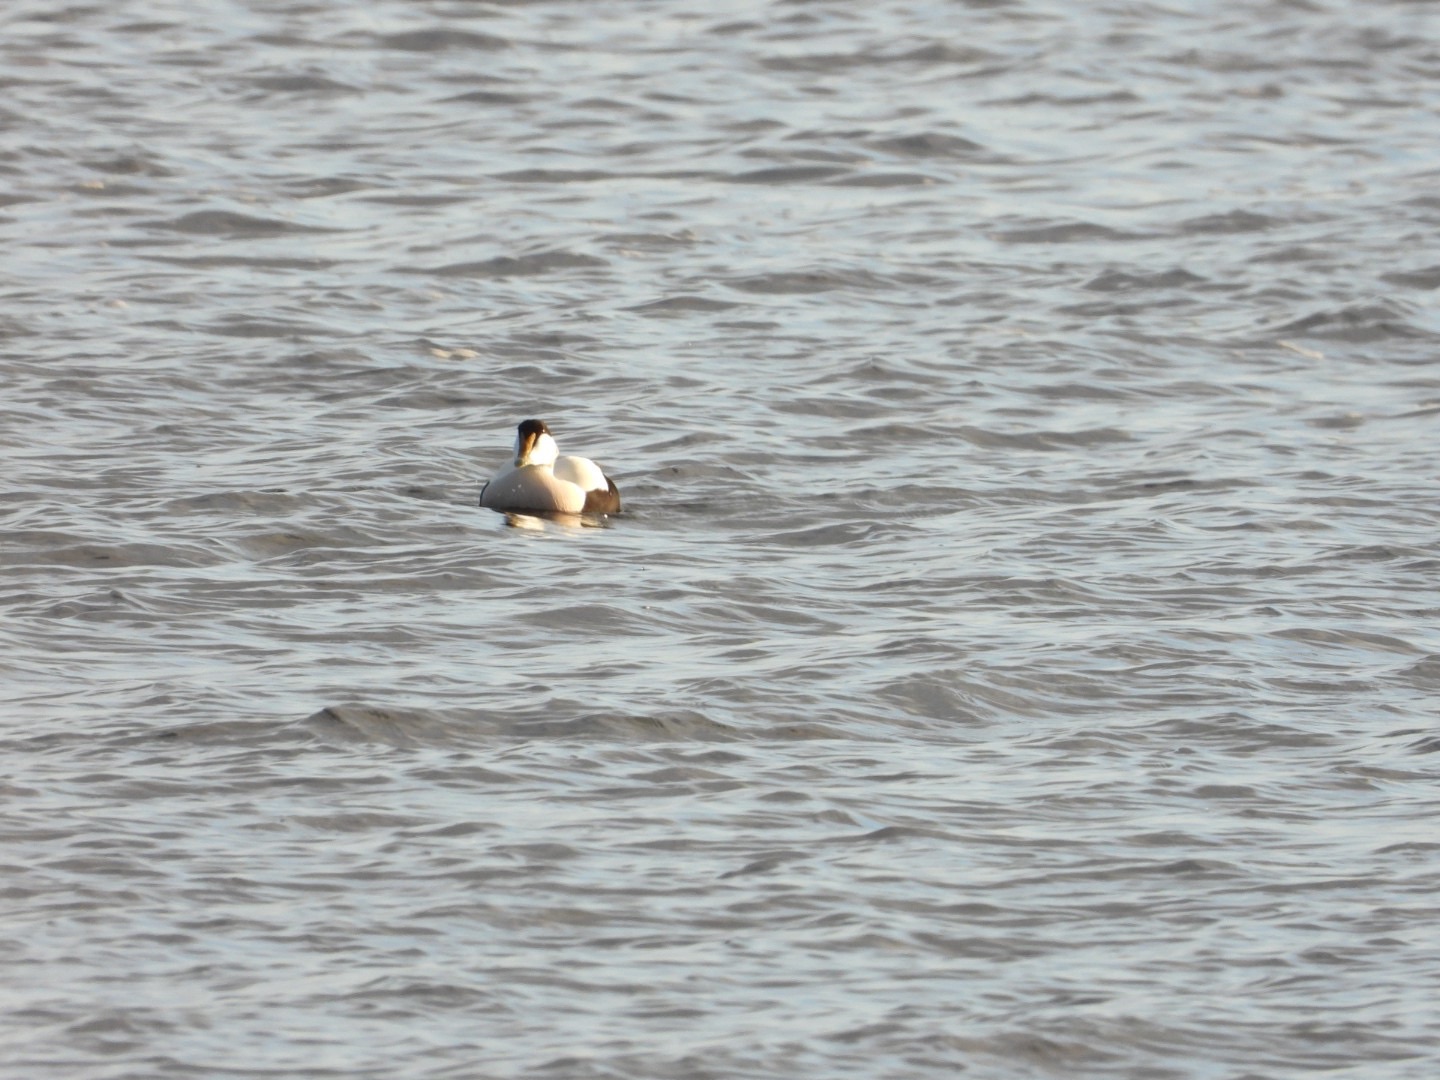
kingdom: Animalia
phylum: Chordata
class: Aves
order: Anseriformes
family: Anatidae
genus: Somateria
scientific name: Somateria mollissima
